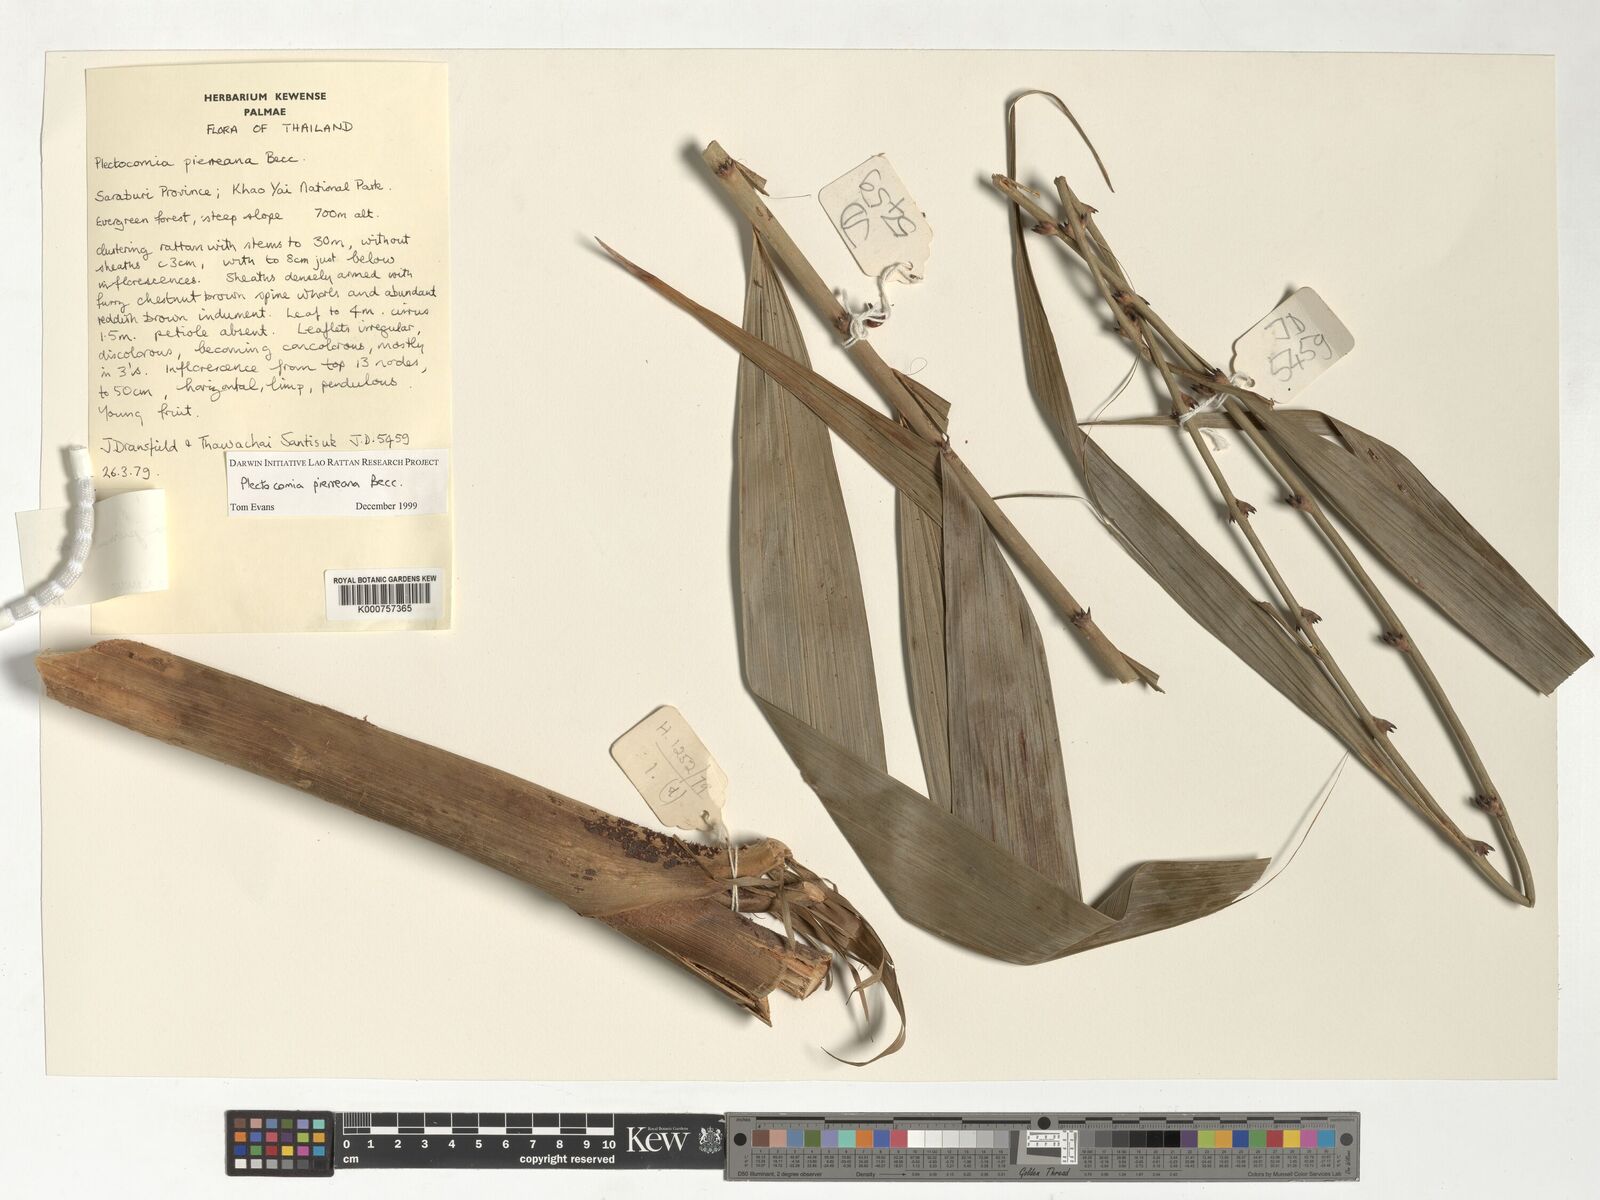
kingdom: Plantae
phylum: Tracheophyta
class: Liliopsida
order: Arecales
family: Arecaceae
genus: Plectocomia
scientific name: Plectocomia pierreana
